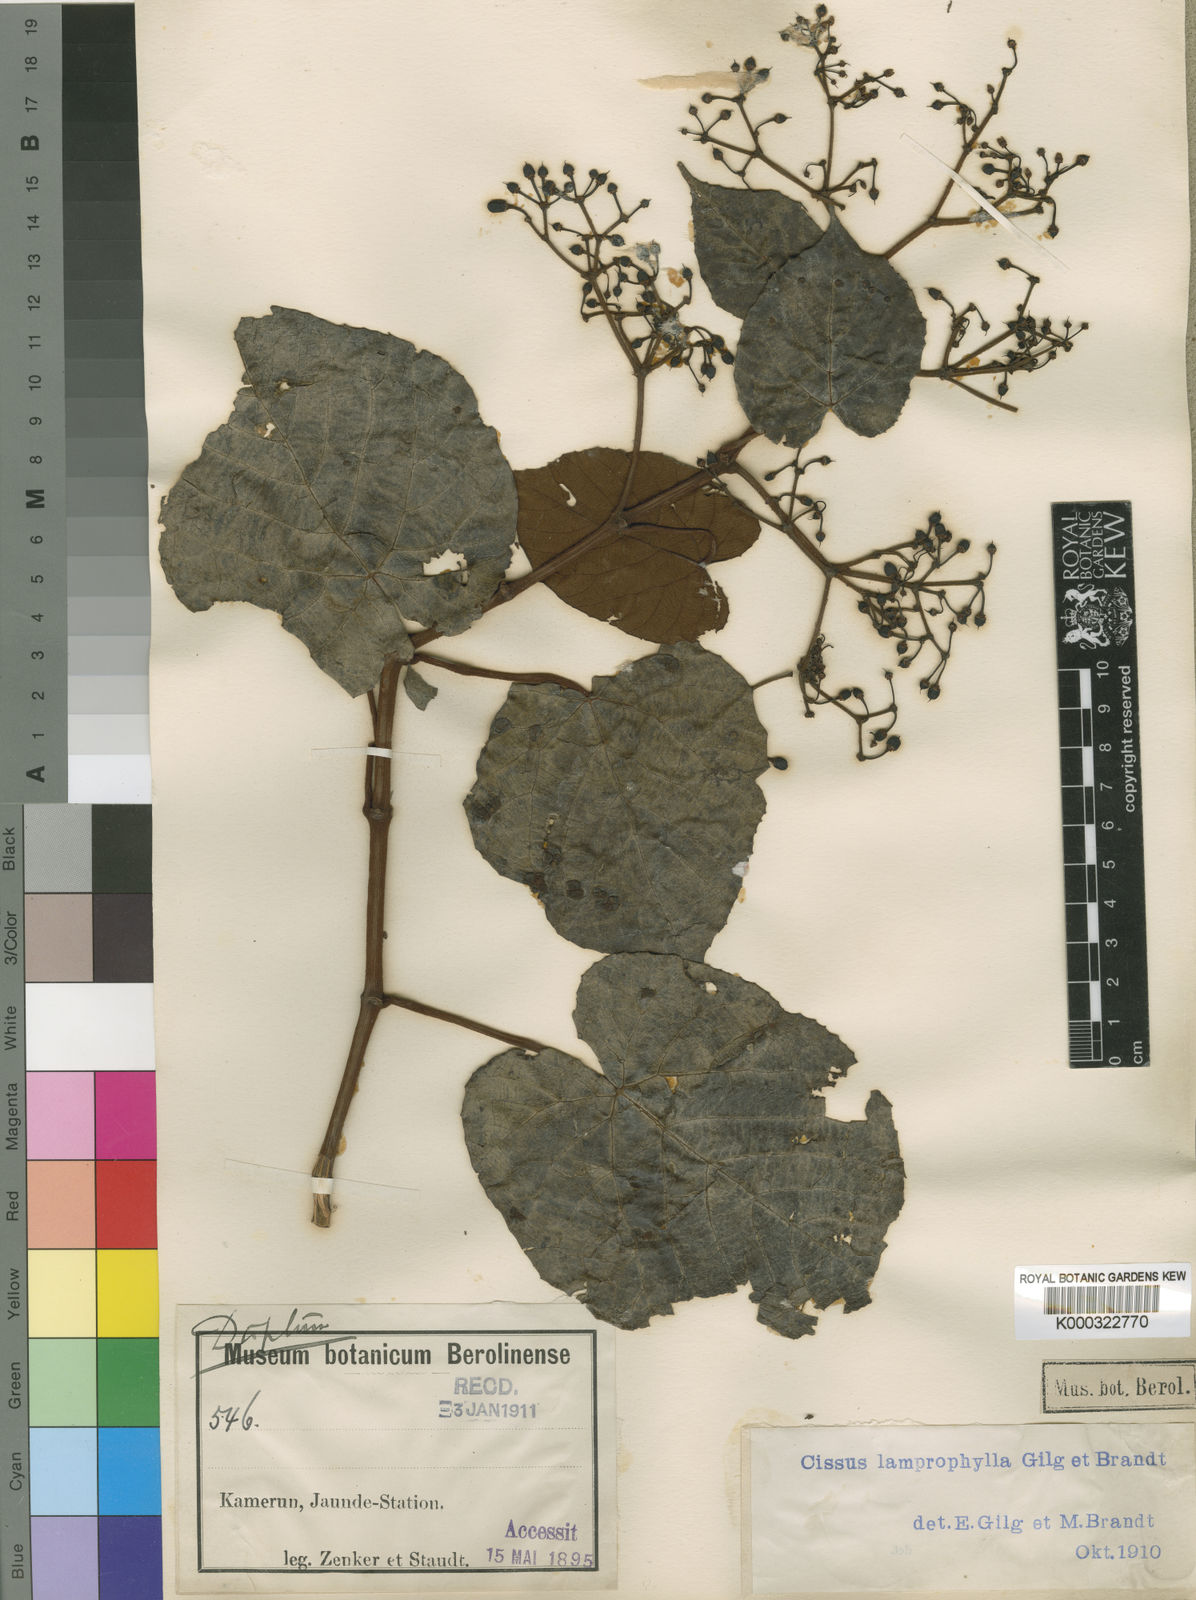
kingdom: Plantae
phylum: Tracheophyta
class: Magnoliopsida
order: Vitales
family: Vitaceae
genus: Cissus
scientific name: Cissus lamprophylla
